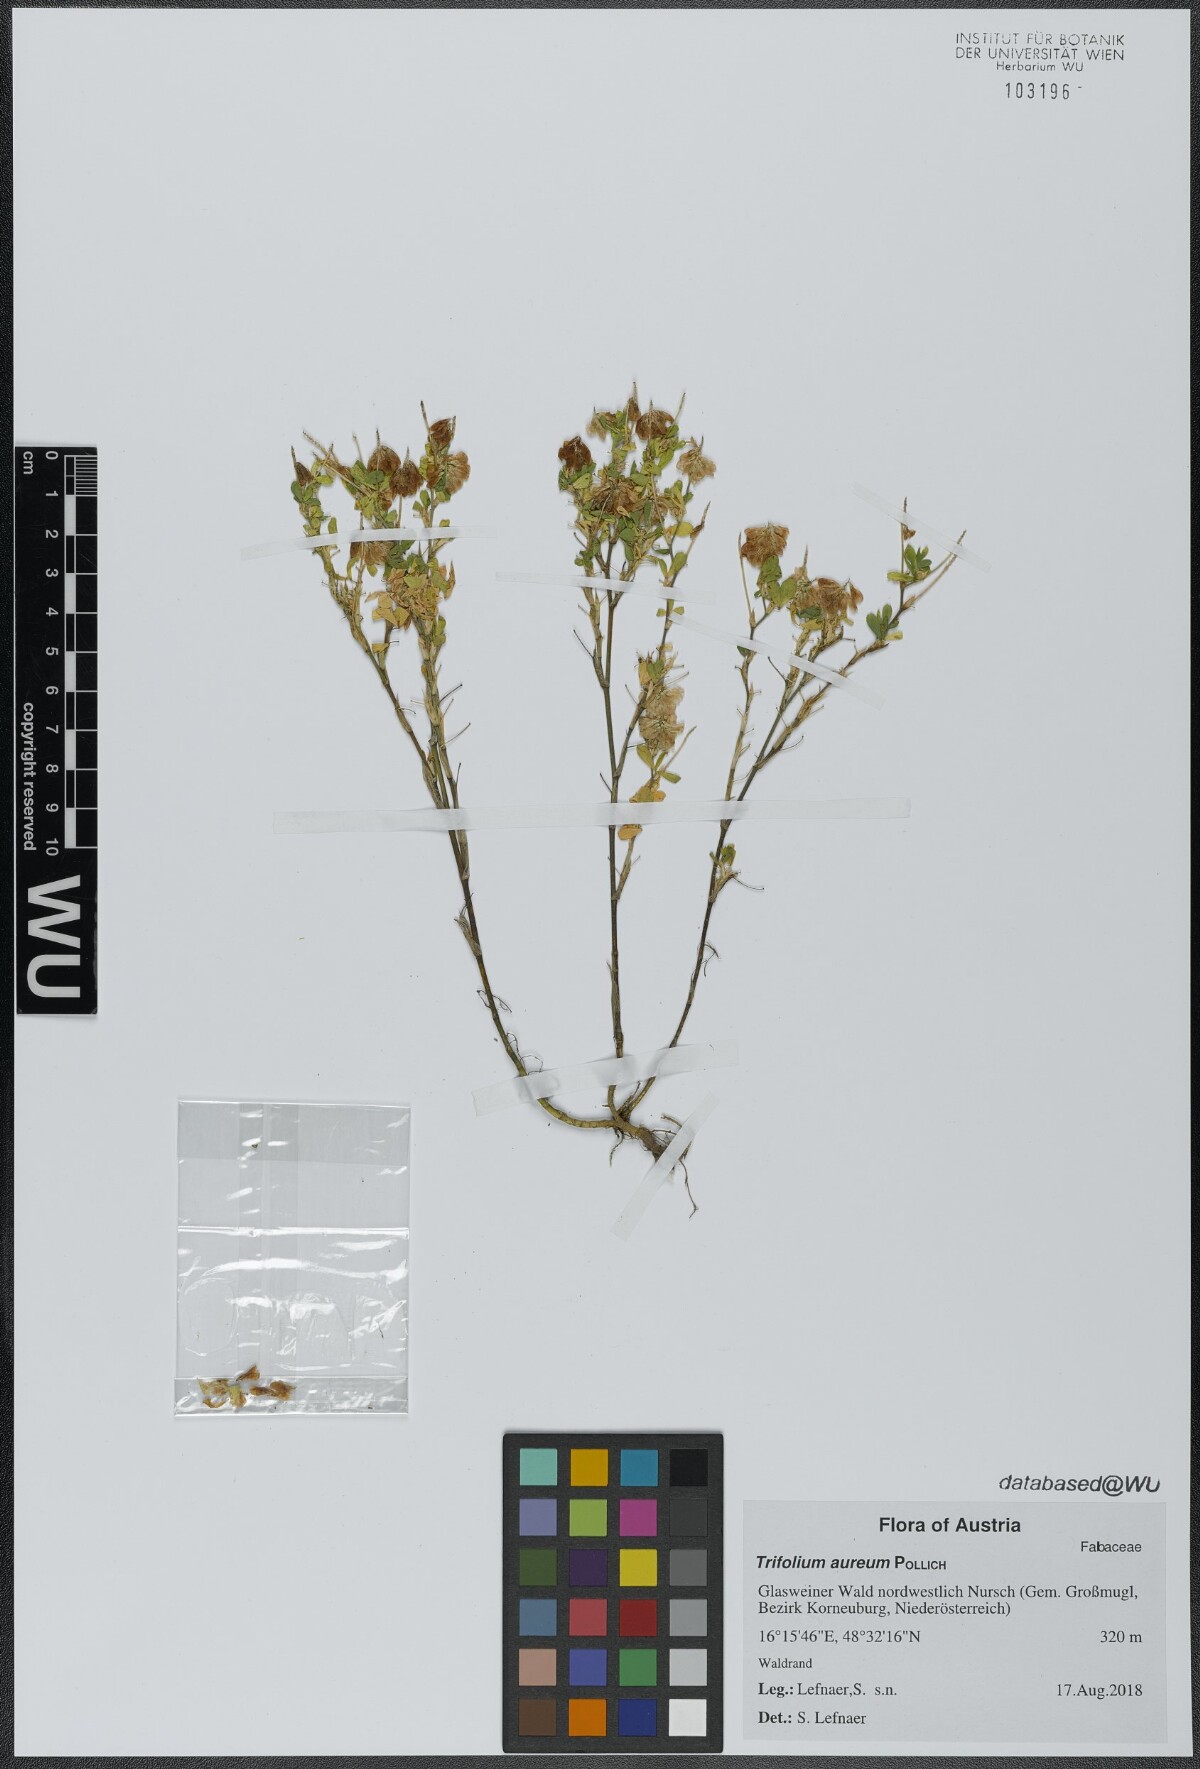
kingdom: Plantae
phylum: Tracheophyta
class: Magnoliopsida
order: Fabales
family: Fabaceae
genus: Trifolium
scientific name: Trifolium aureum
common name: Golden clover
